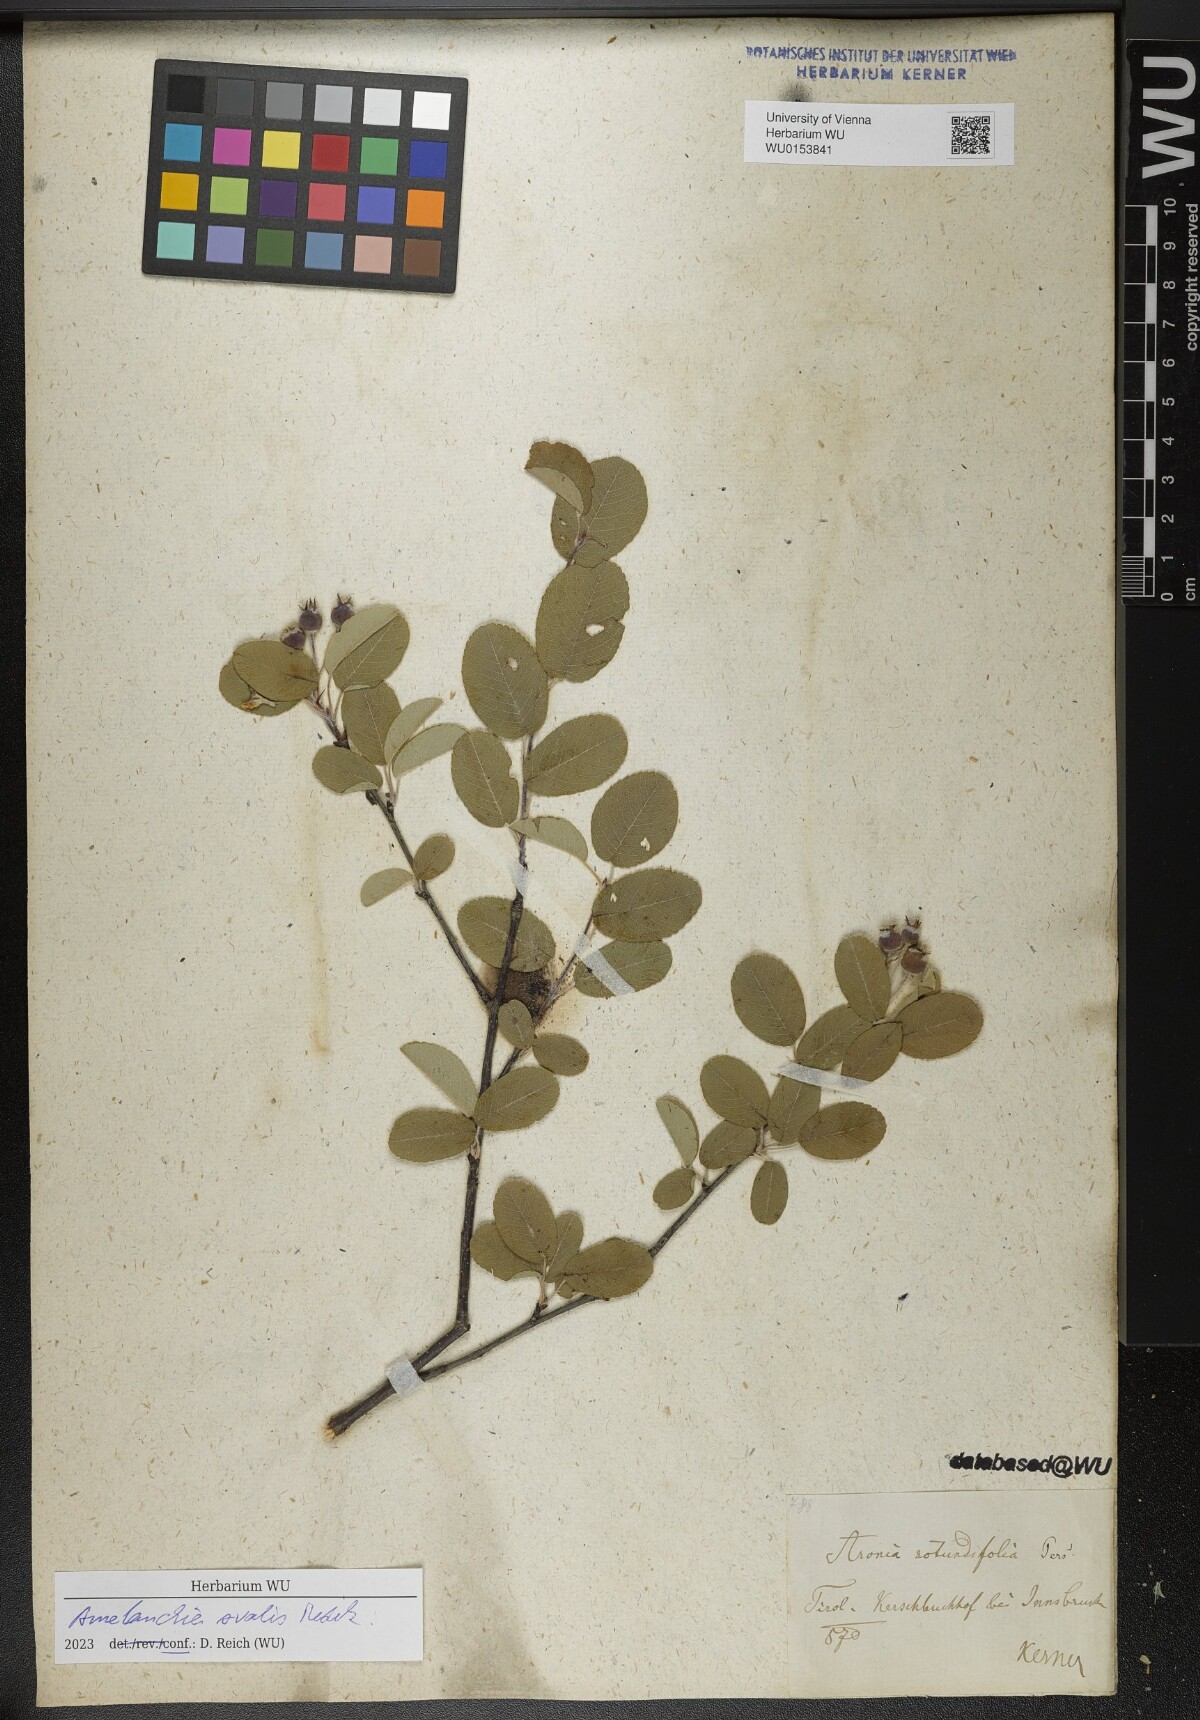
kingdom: Plantae
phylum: Tracheophyta
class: Magnoliopsida
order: Rosales
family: Rosaceae
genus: Amelanchier
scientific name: Amelanchier ovalis
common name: Serviceberry
